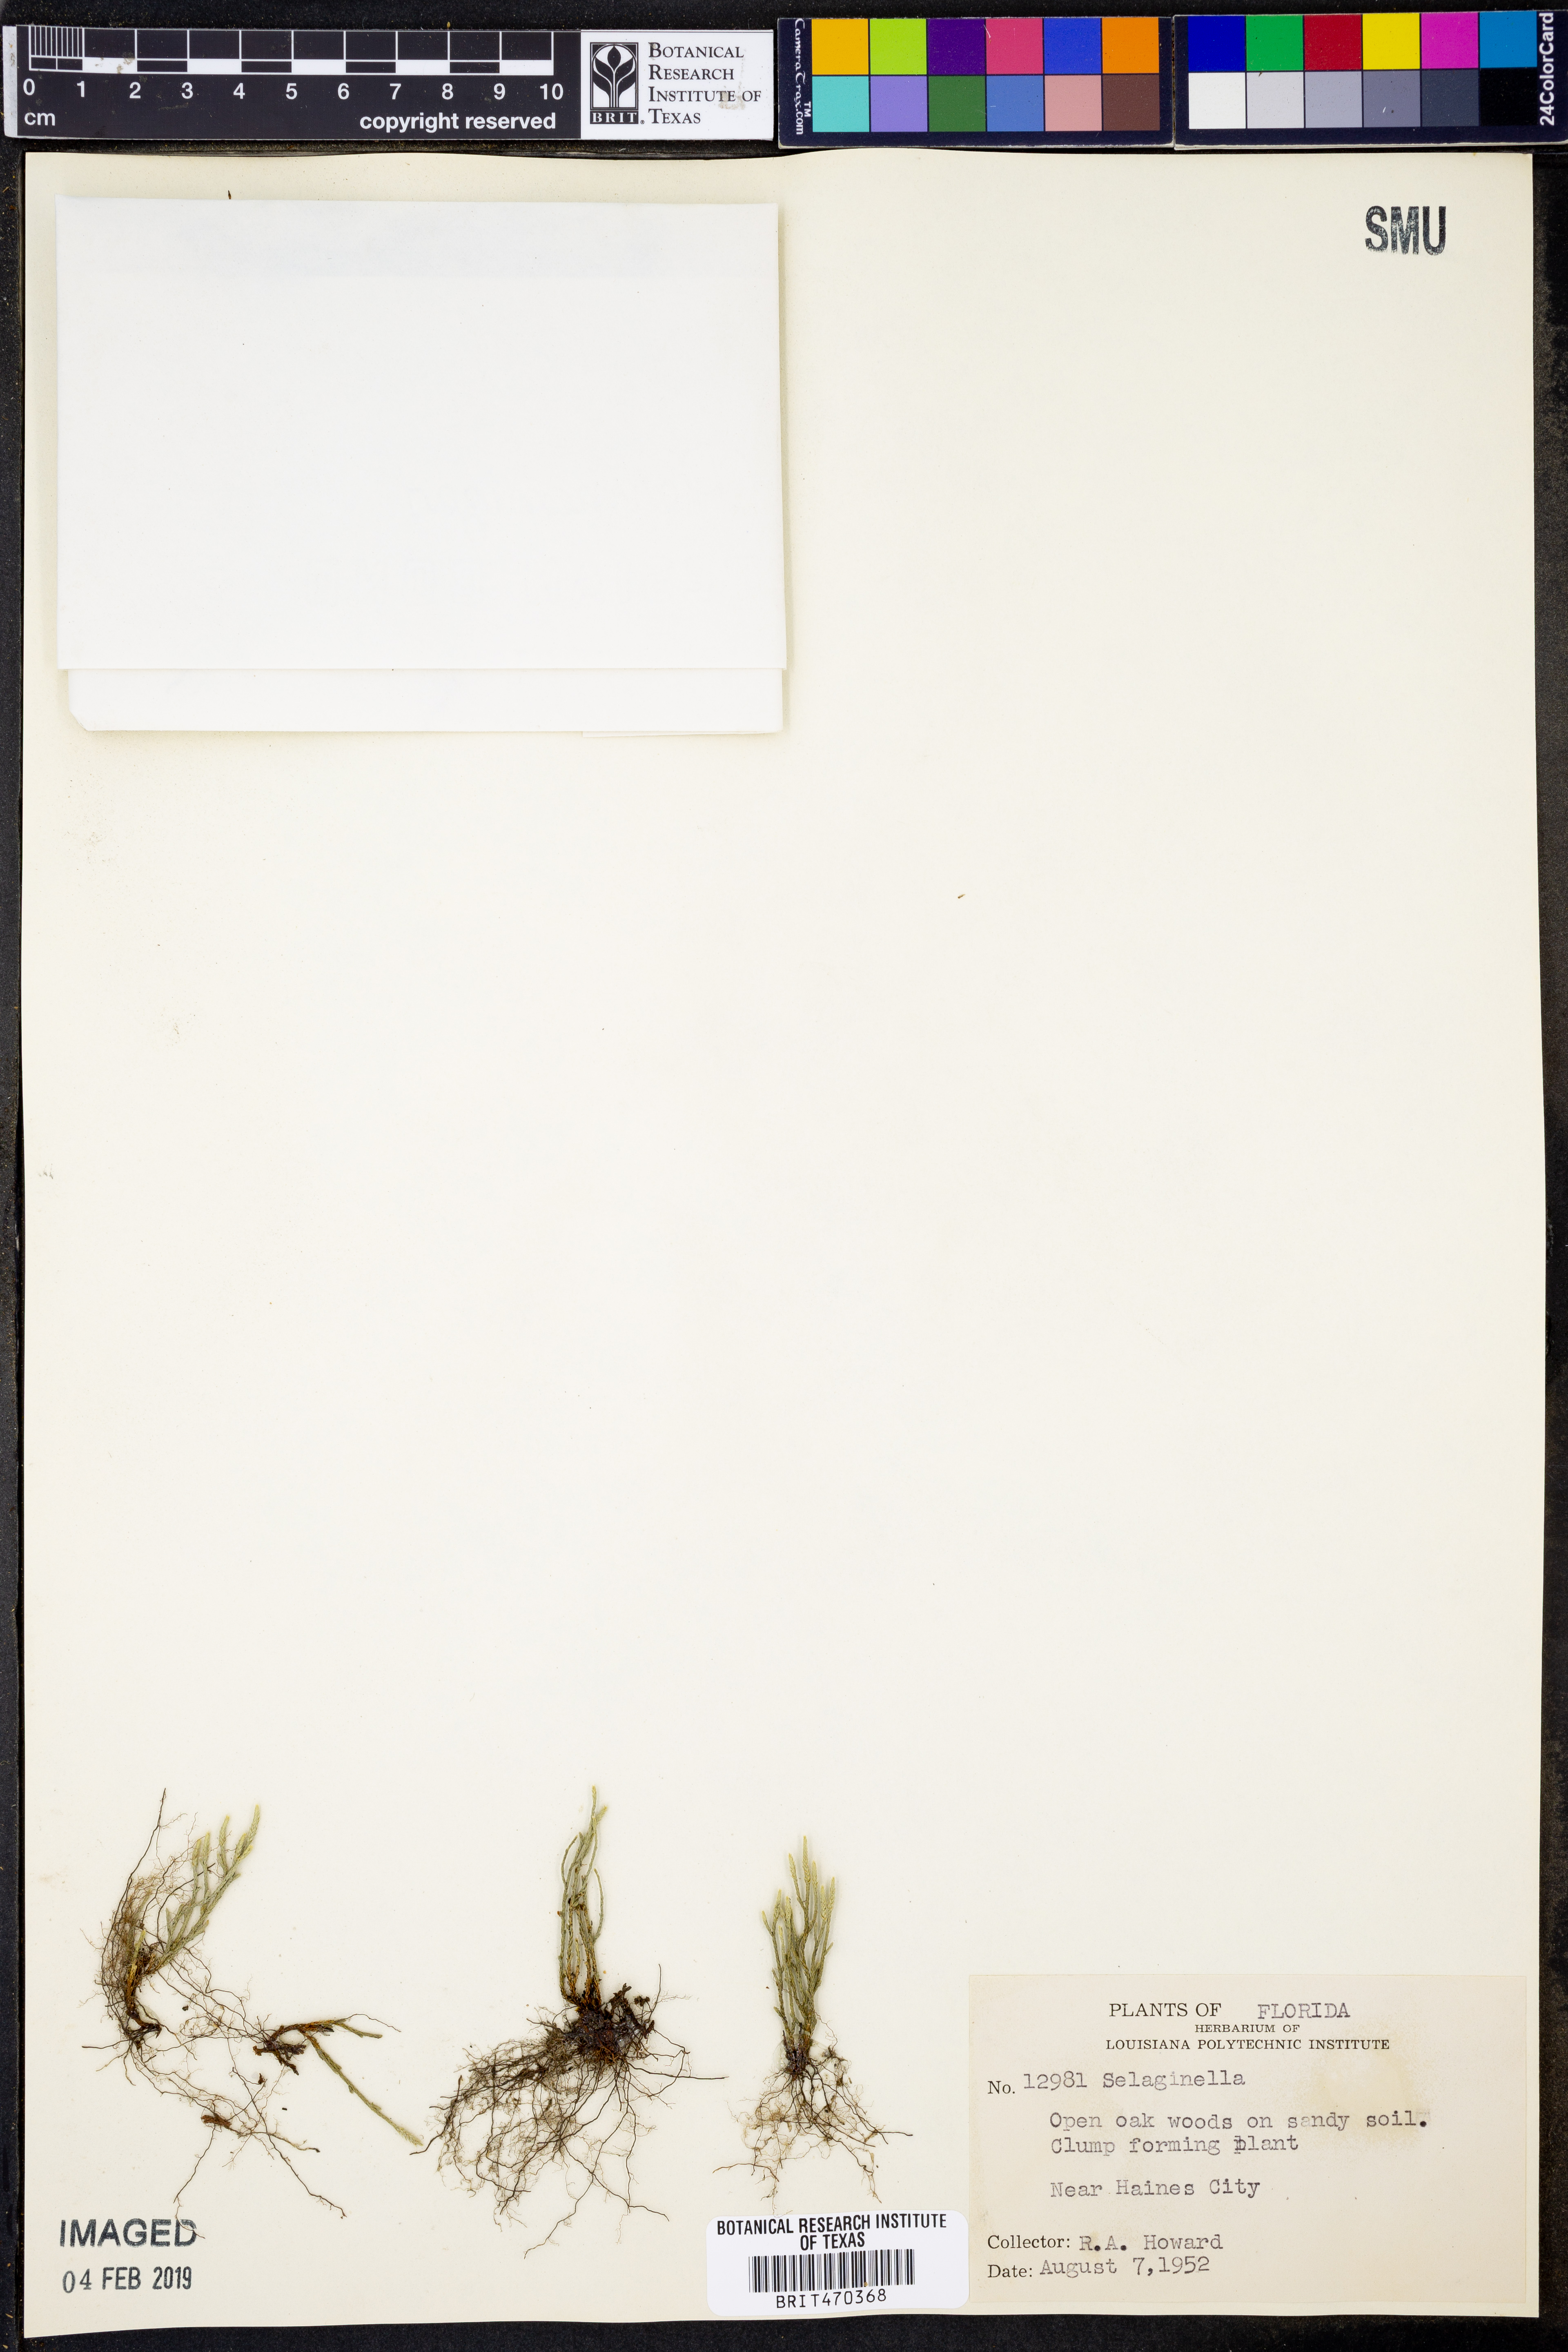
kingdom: Plantae
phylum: Tracheophyta
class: Lycopodiopsida
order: Selaginellales
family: Selaginellaceae
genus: Selaginella
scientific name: Selaginella
